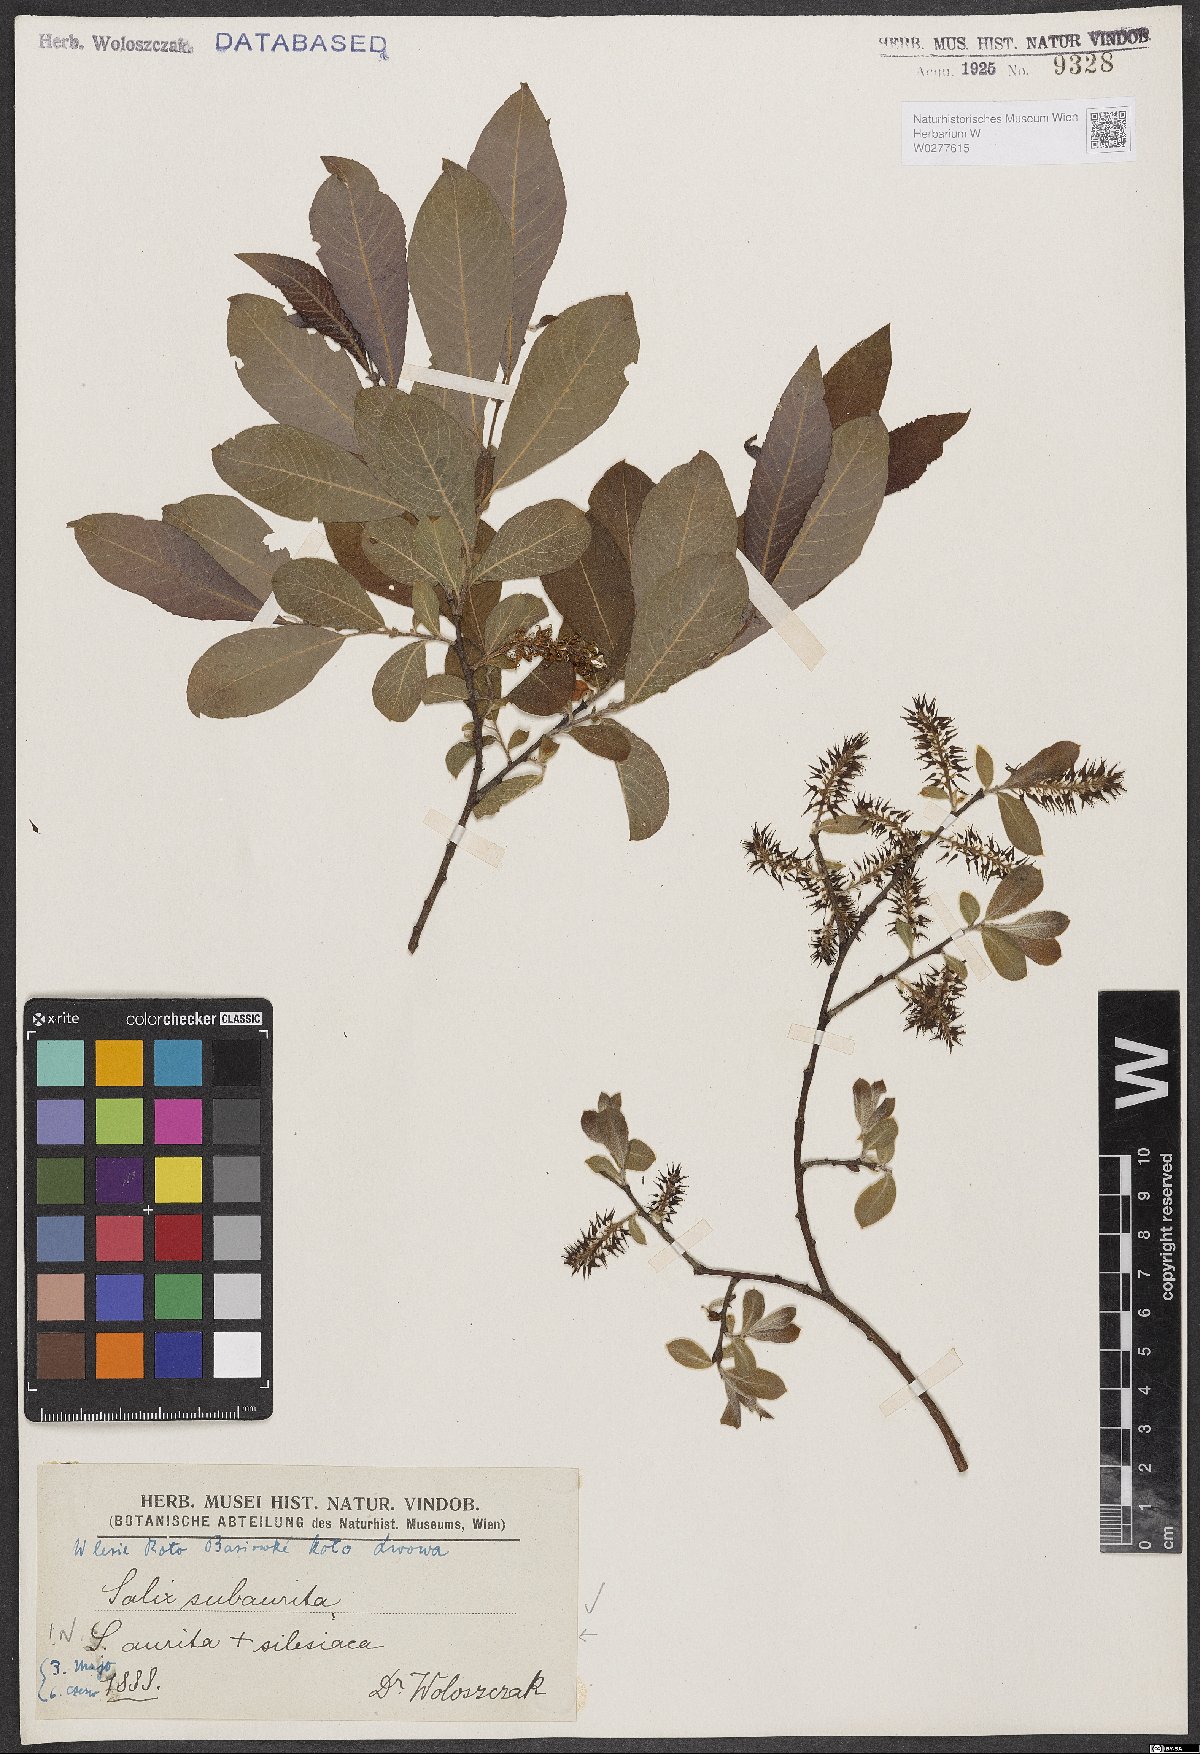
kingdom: Plantae
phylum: Tracheophyta
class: Magnoliopsida
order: Malpighiales
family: Salicaceae
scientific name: Salicaceae
